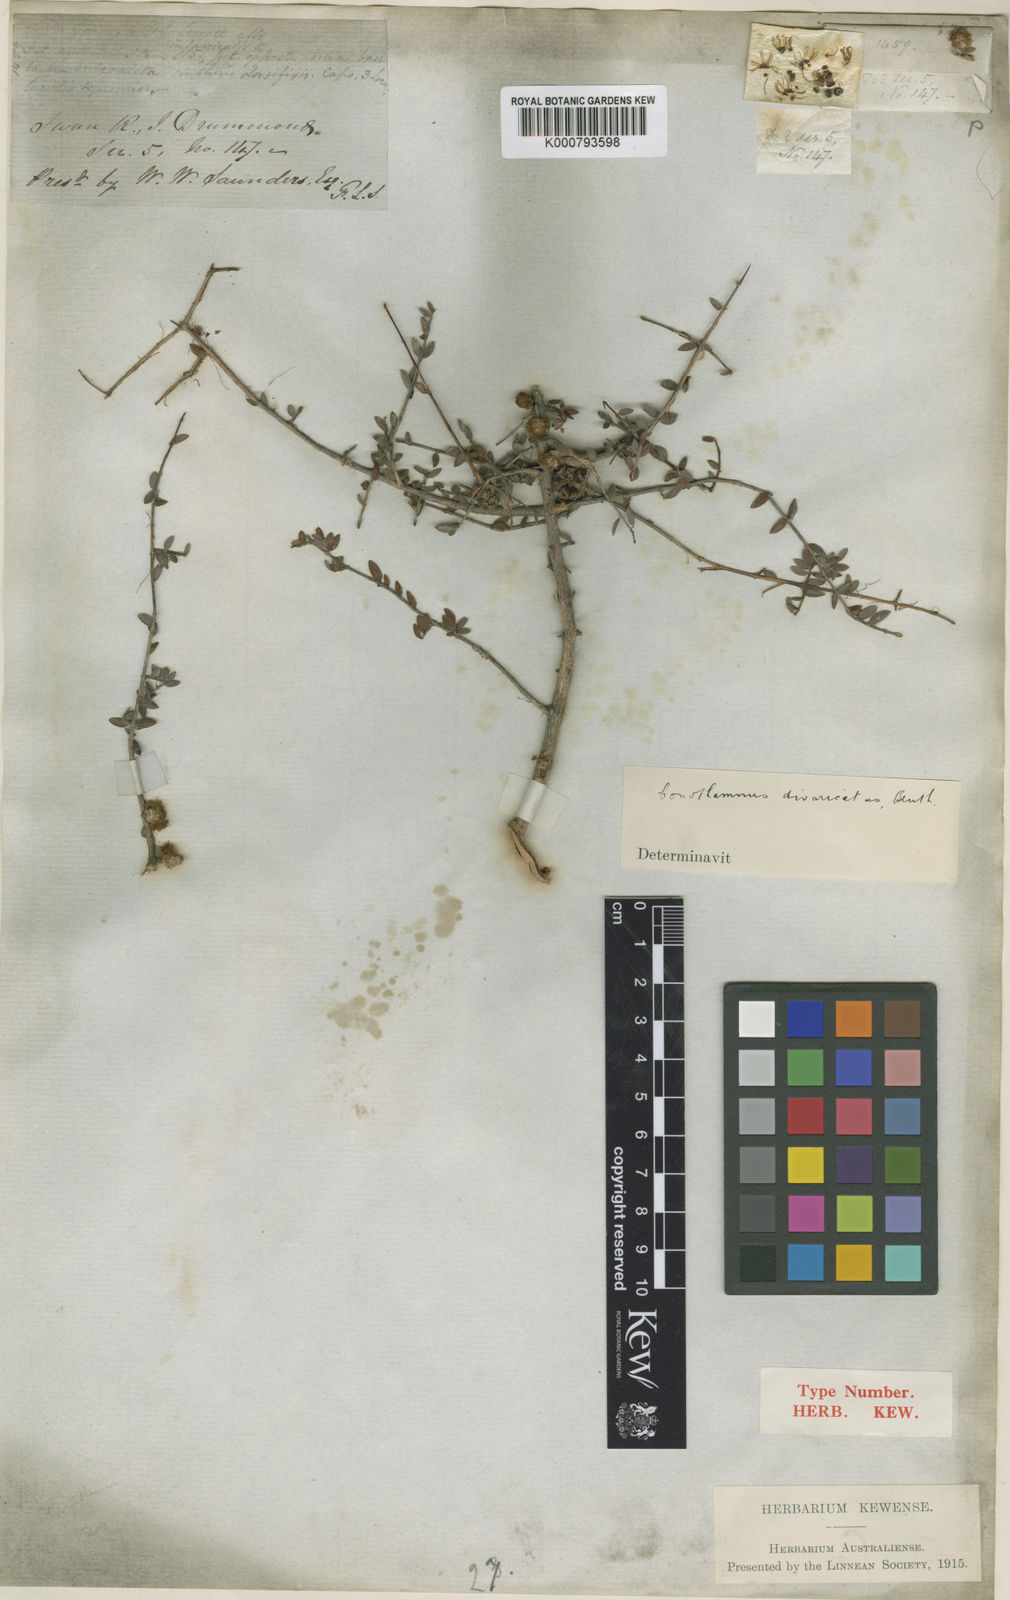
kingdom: Plantae
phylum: Tracheophyta
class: Magnoliopsida
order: Myrtales
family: Myrtaceae
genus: Melaleuca
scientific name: Melaleuca aurea
